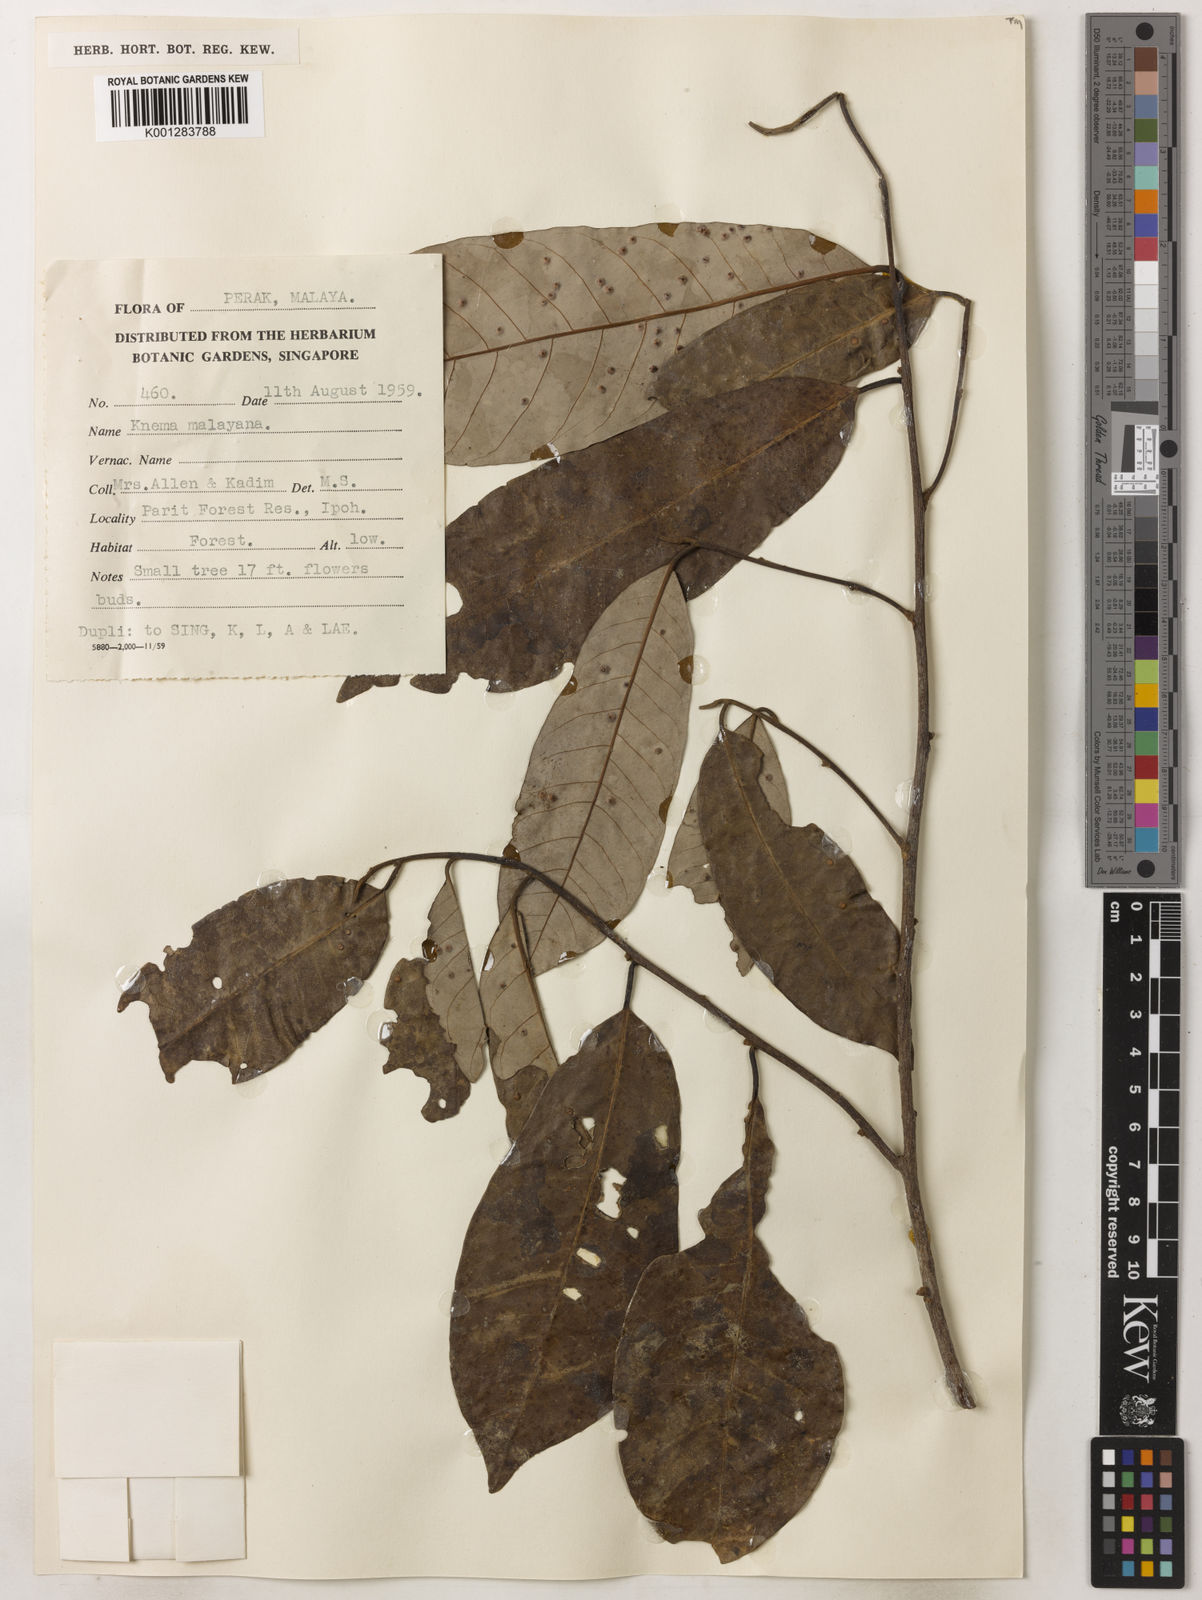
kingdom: Plantae
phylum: Tracheophyta
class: Magnoliopsida
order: Magnoliales
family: Myristicaceae
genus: Knema
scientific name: Knema malayana
